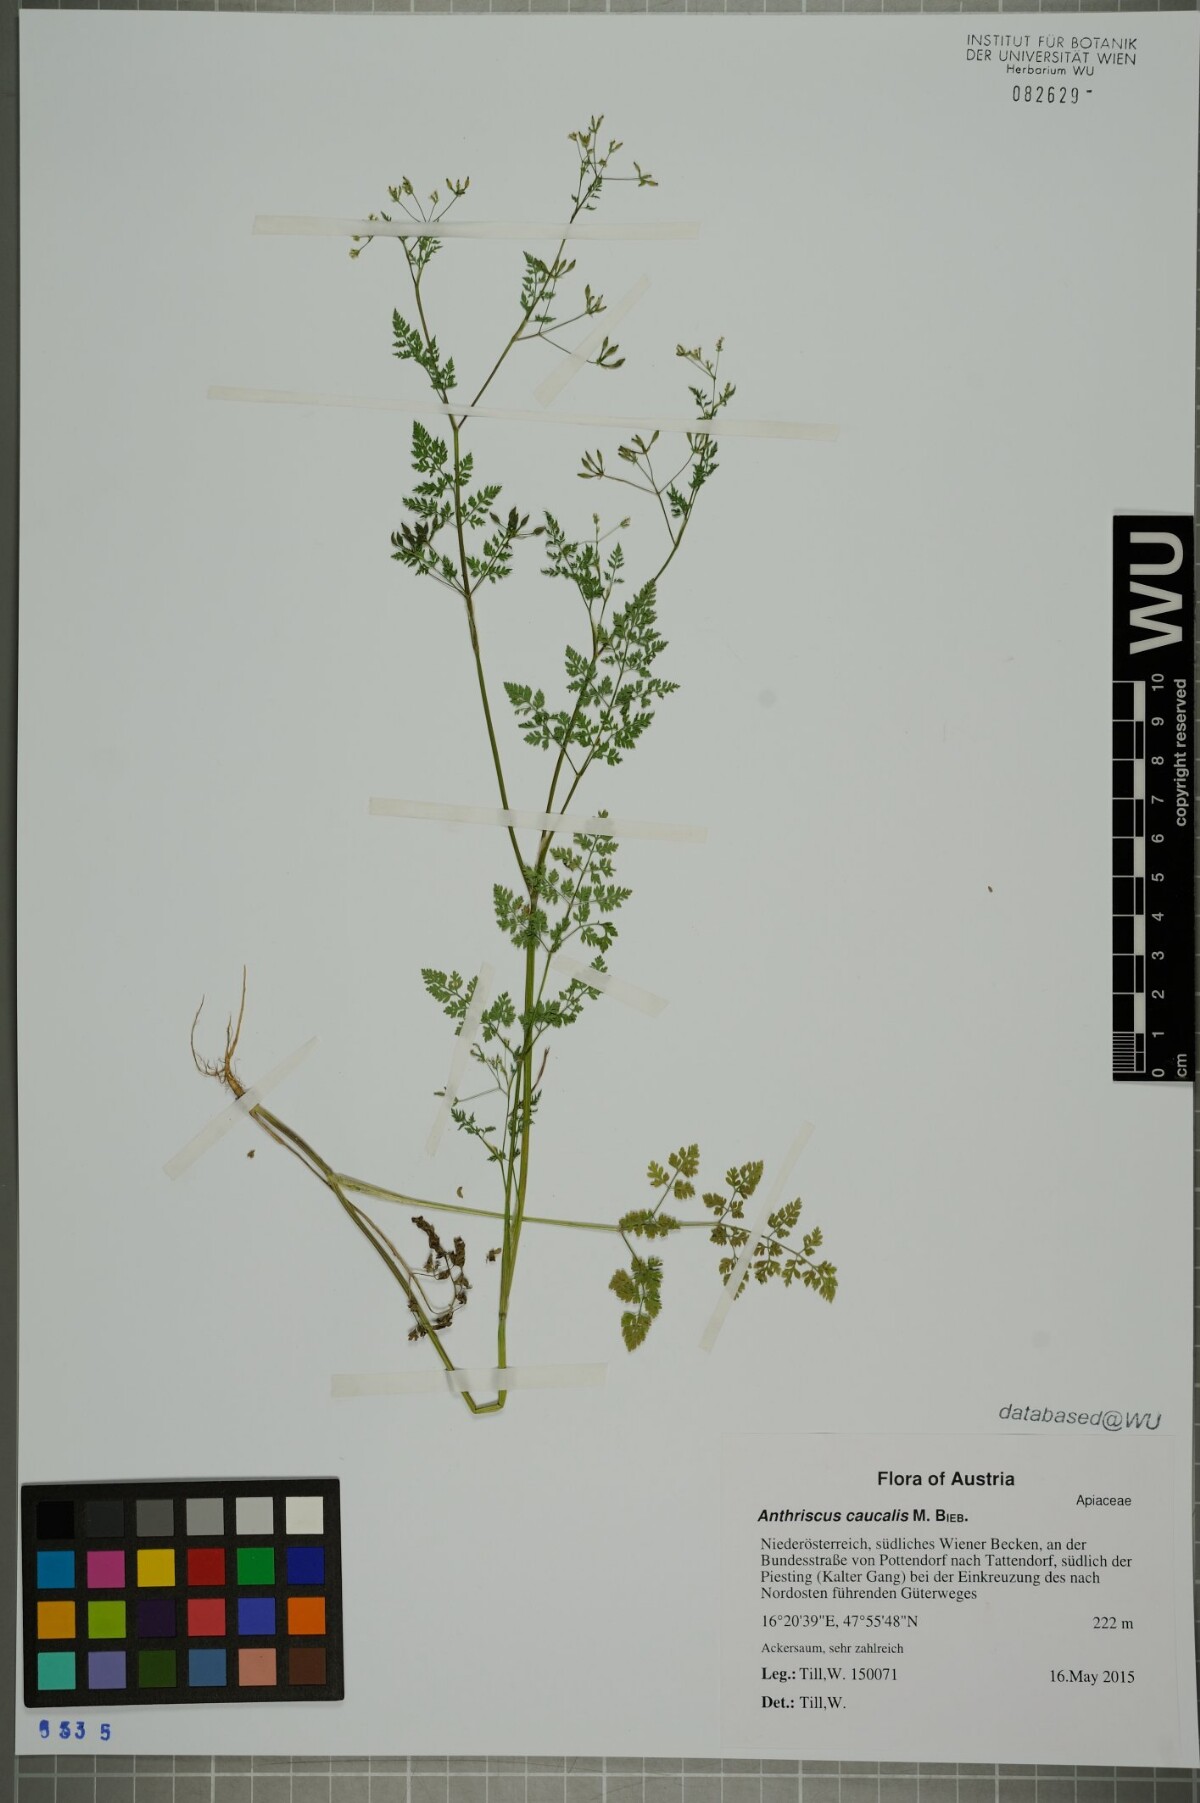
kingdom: Plantae
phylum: Tracheophyta
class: Magnoliopsida
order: Apiales
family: Apiaceae
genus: Anthriscus
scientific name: Anthriscus caucalis
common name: Bur chervil
